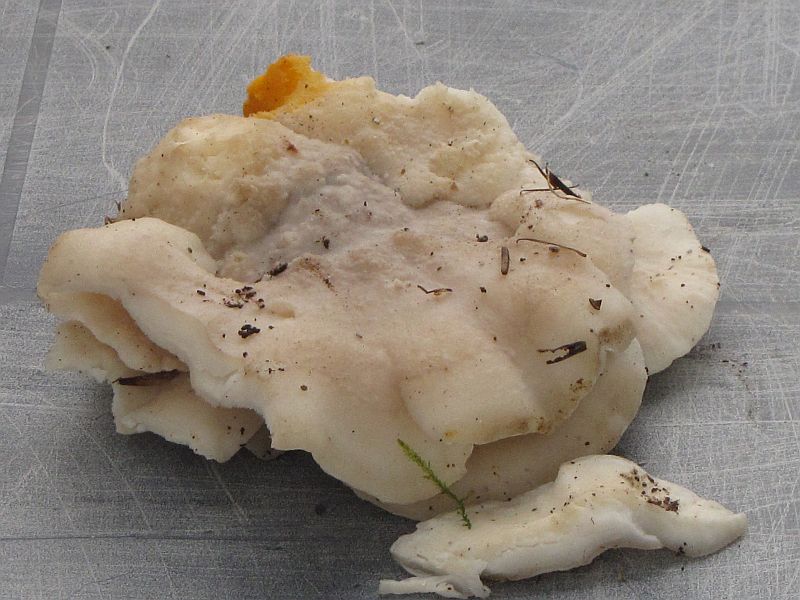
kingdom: Fungi
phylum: Basidiomycota
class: Agaricomycetes
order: Polyporales
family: Incrustoporiaceae
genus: Tyromyces
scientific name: Tyromyces lacteus
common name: mælkehvid kødporesvamp
